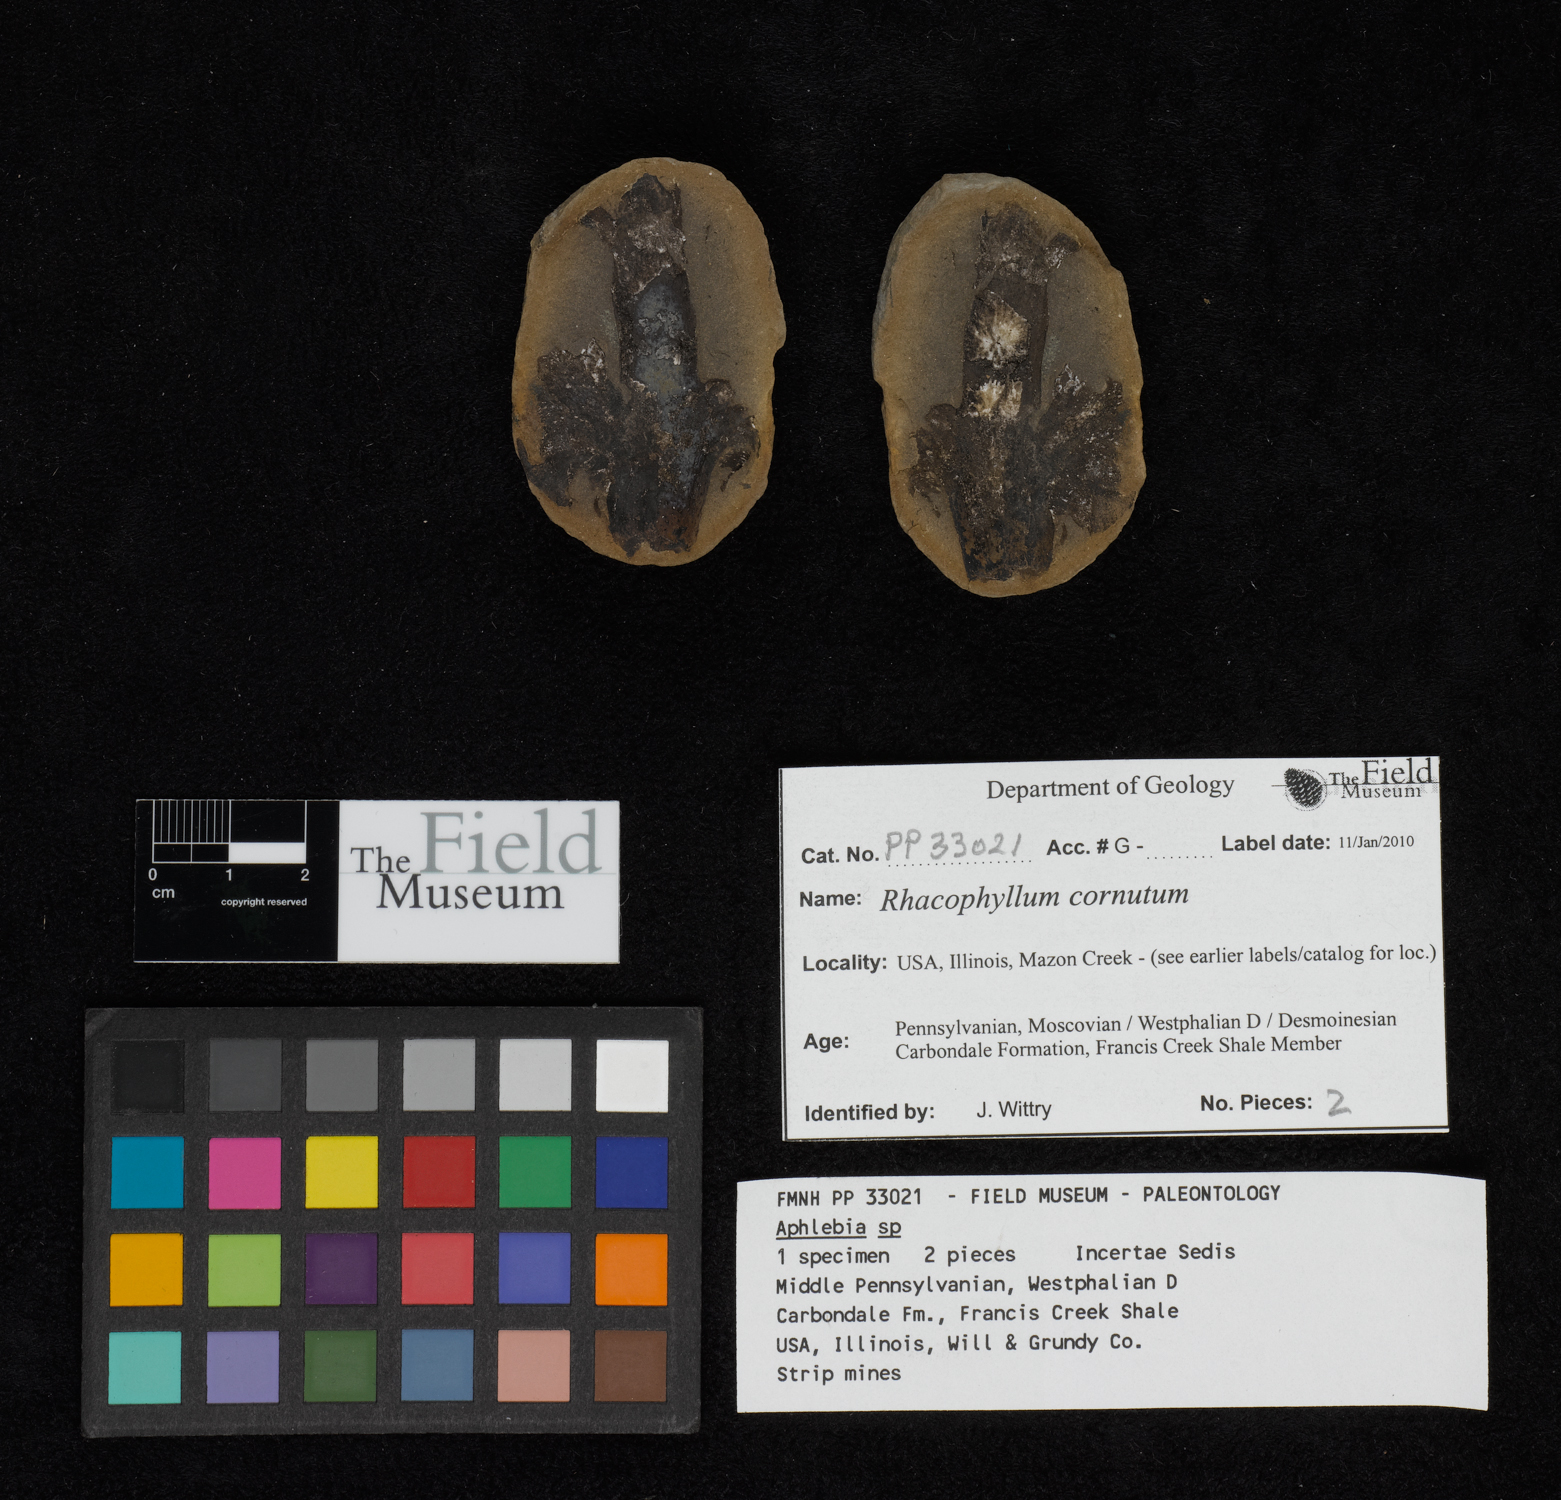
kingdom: Plantae
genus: Rhacophyllum
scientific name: Rhacophyllum
